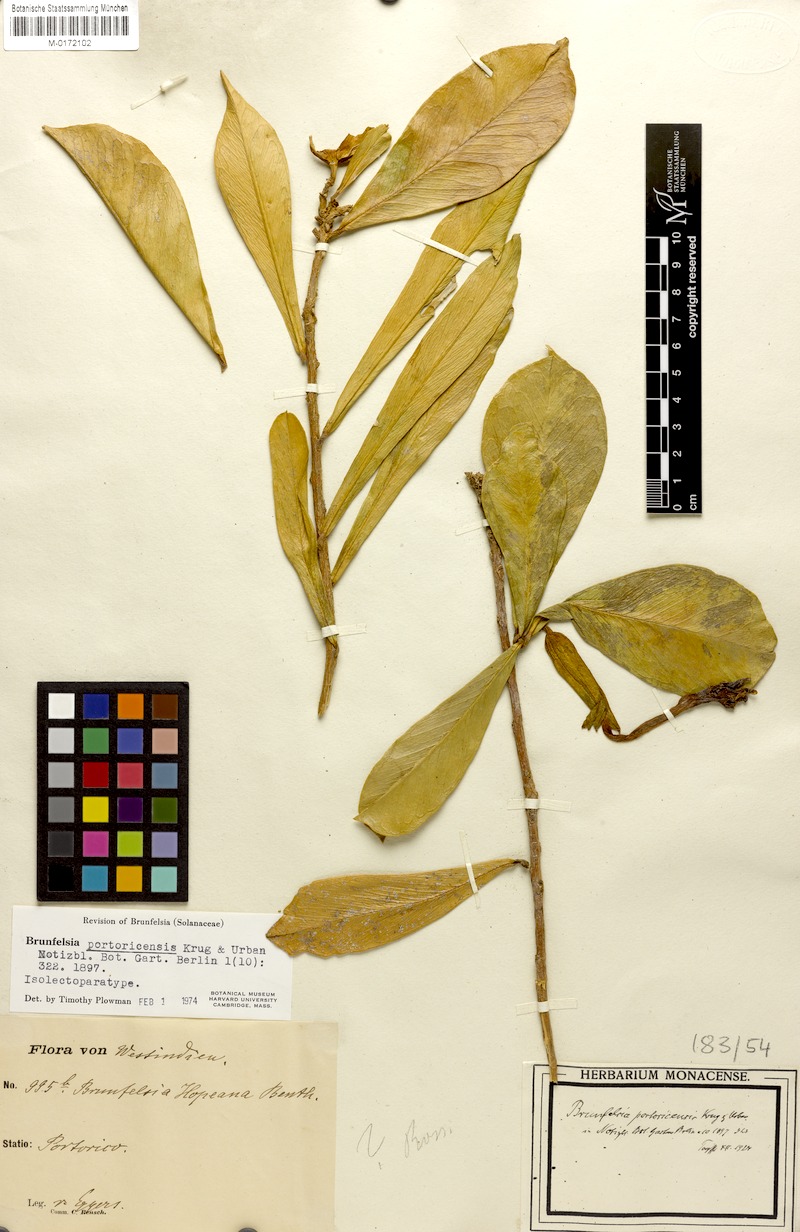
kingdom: Plantae
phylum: Tracheophyta
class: Magnoliopsida
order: Solanales
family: Solanaceae
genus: Brunfelsia
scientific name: Brunfelsia portoricensis
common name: Puerto rico raintree
